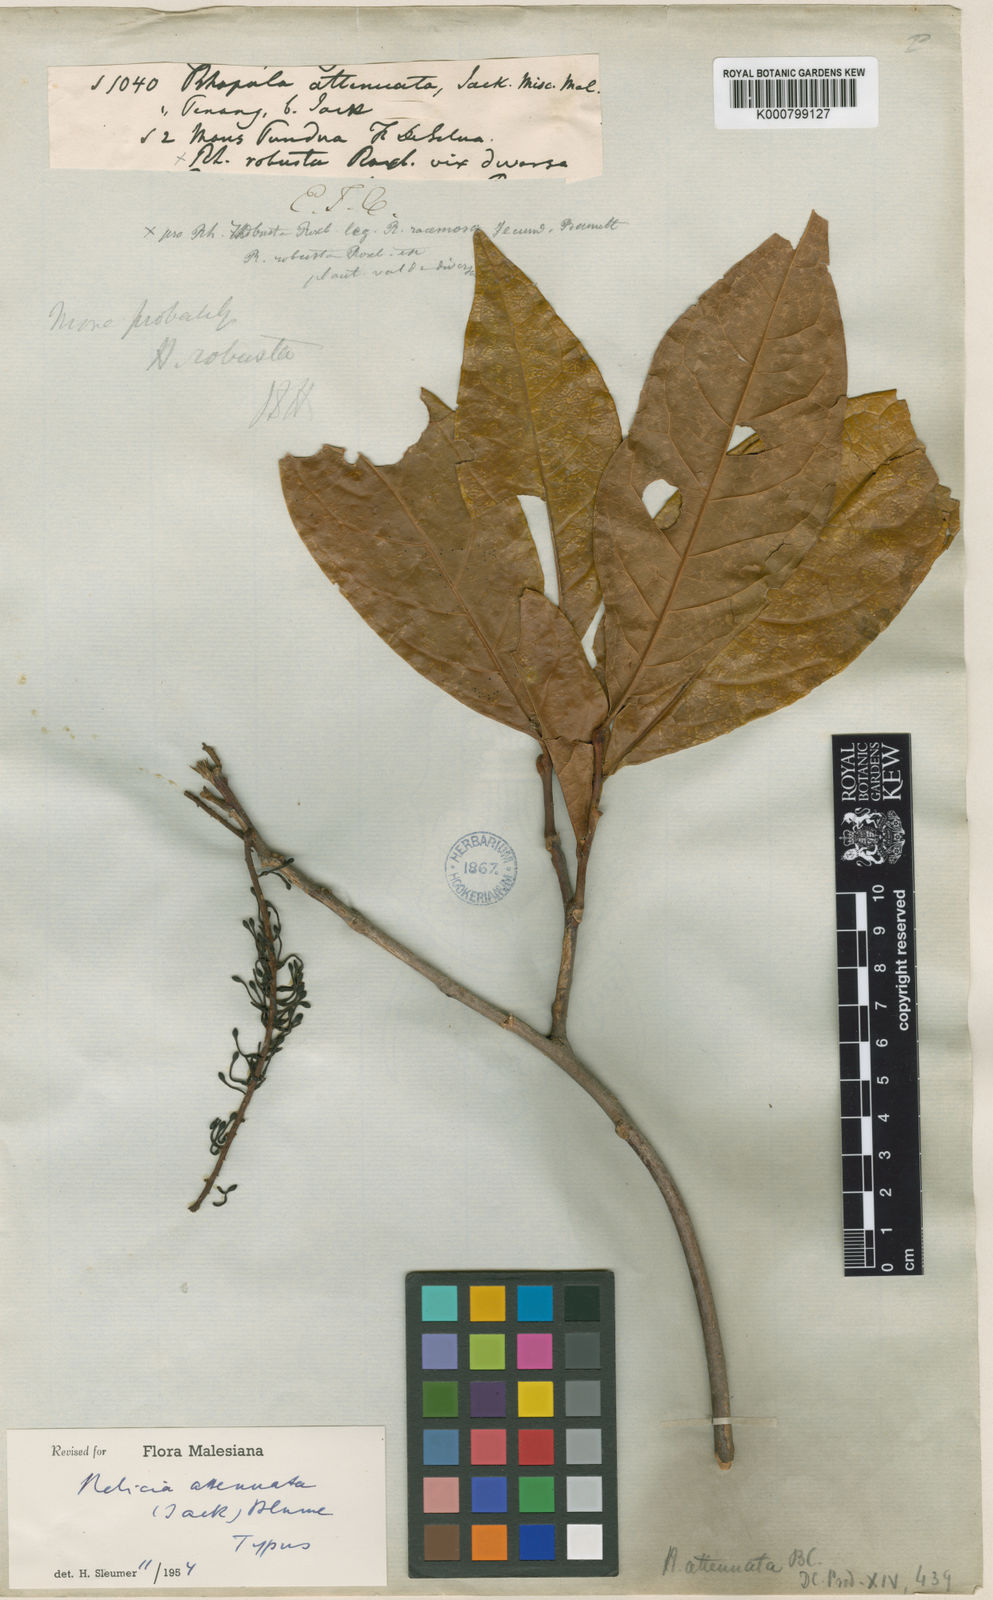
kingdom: Plantae
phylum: Tracheophyta
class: Magnoliopsida
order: Proteales
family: Proteaceae
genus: Helicia
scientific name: Helicia attenuata
